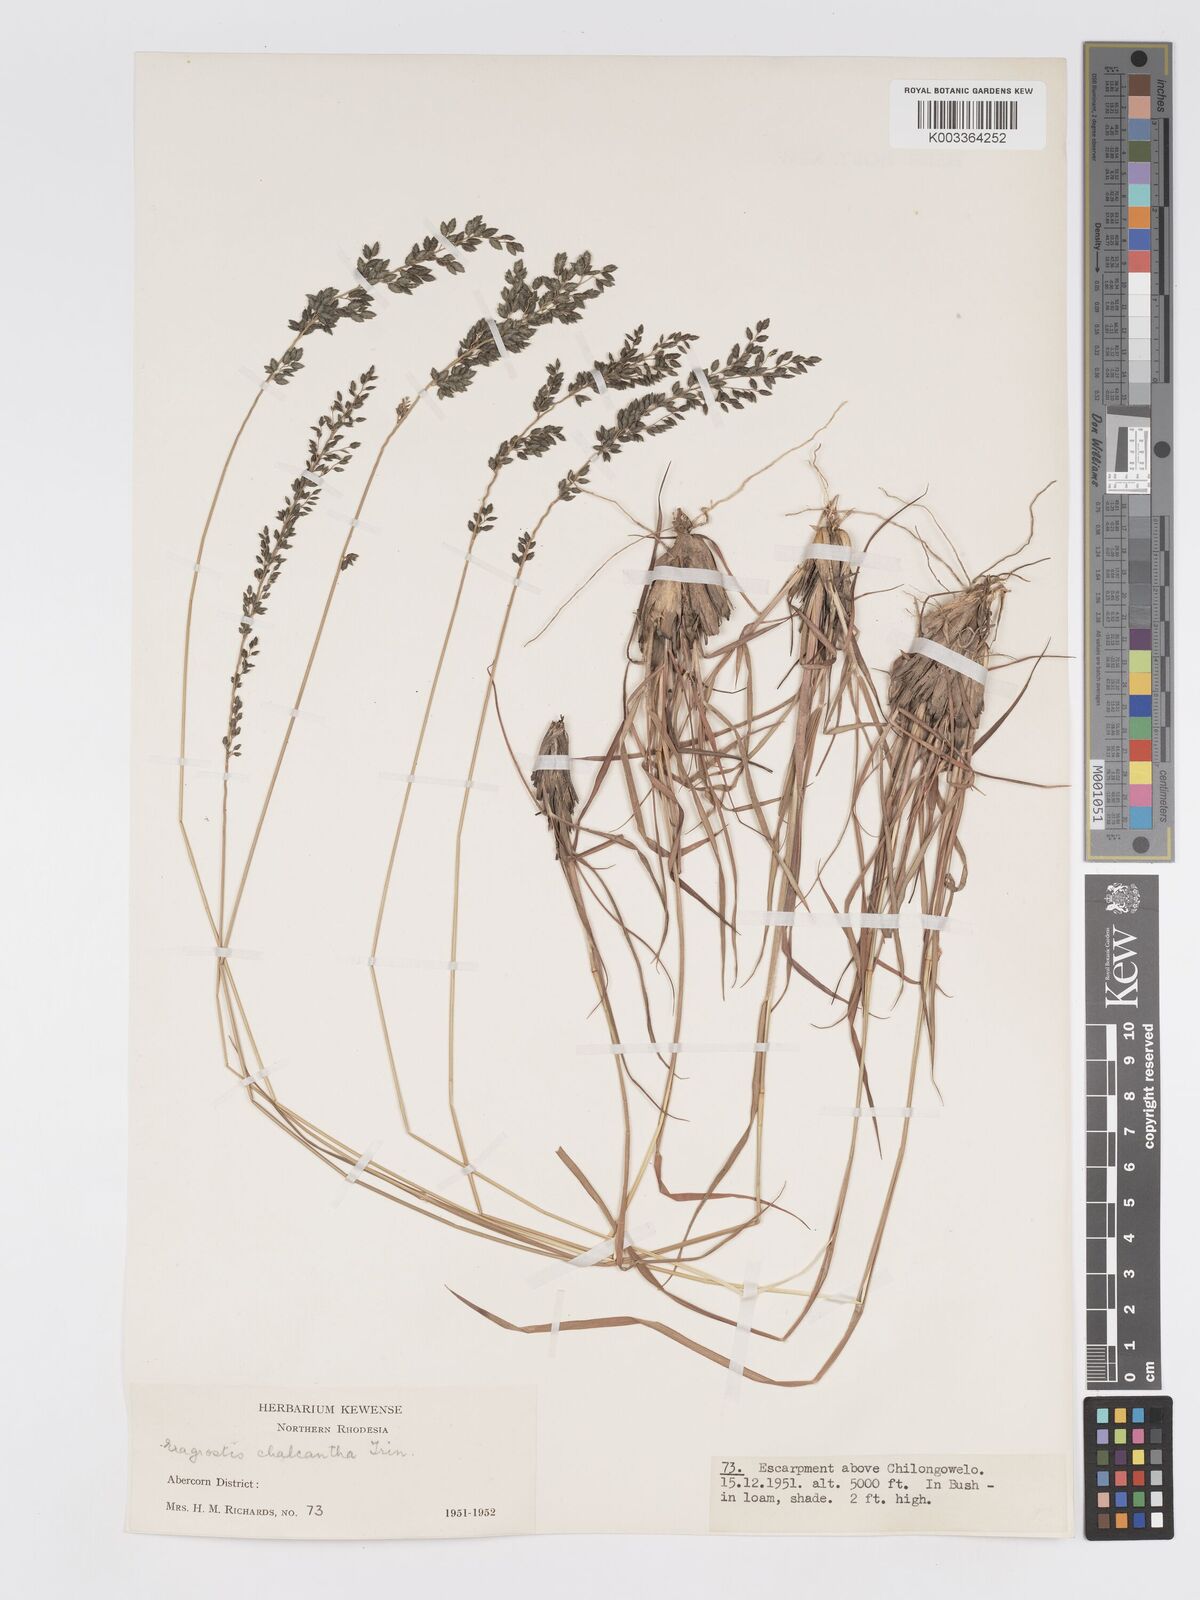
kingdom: Plantae
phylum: Tracheophyta
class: Liliopsida
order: Poales
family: Poaceae
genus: Eragrostis
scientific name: Eragrostis racemosa
